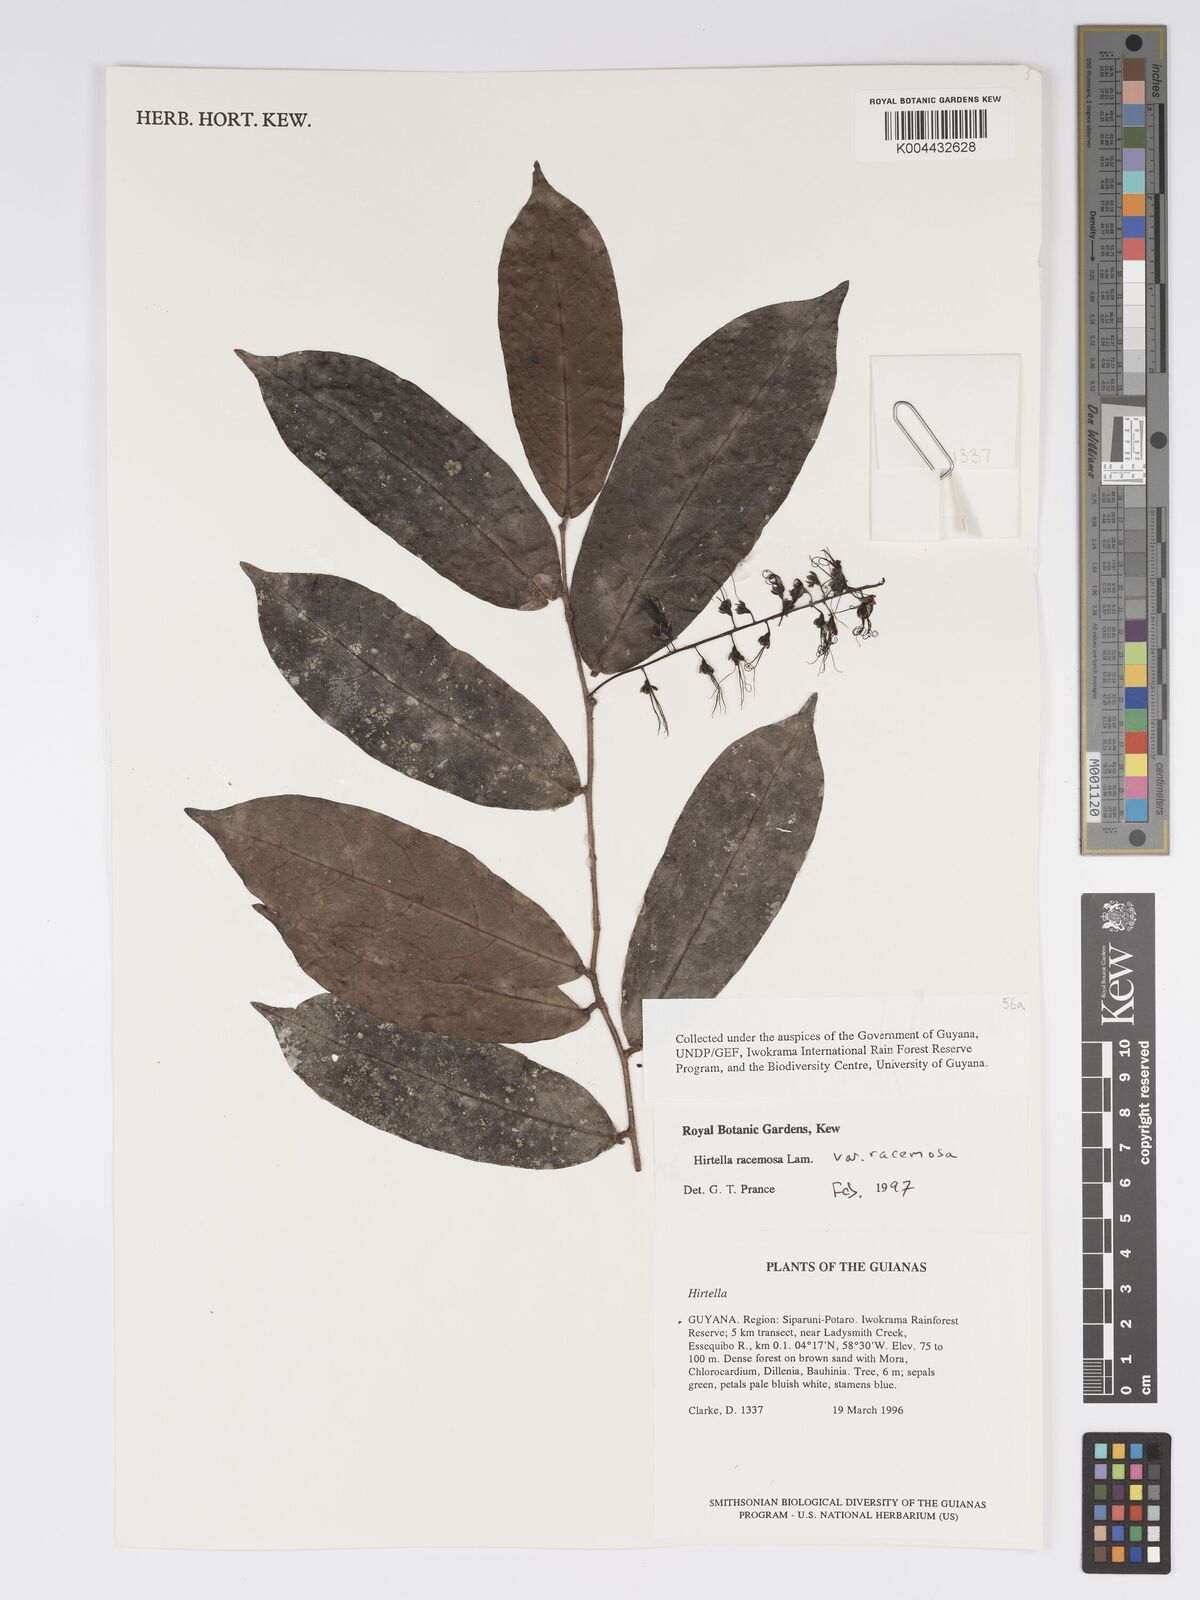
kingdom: Plantae
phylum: Tracheophyta
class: Magnoliopsida
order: Malpighiales
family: Chrysobalanaceae
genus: Hirtella
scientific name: Hirtella racemosa
